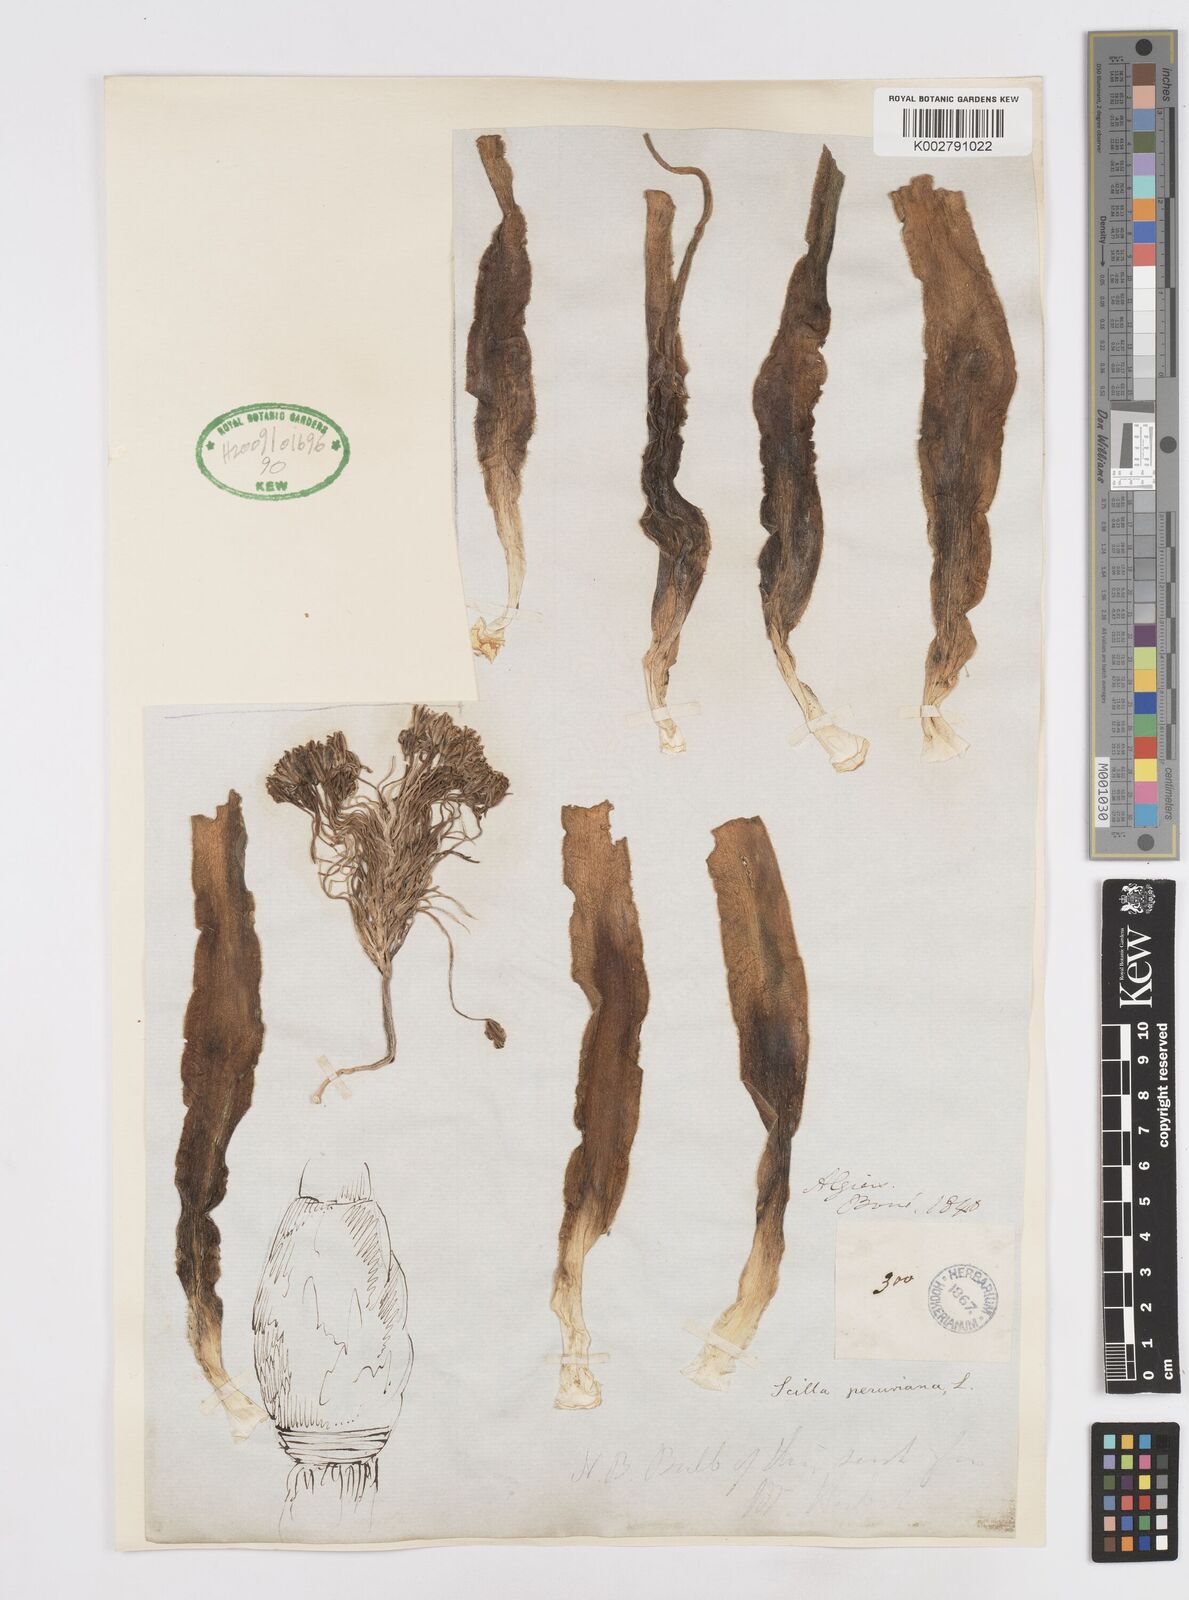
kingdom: Plantae
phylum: Tracheophyta
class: Liliopsida
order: Asparagales
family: Asparagaceae
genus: Scilla
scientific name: Scilla peruviana
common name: Portuguese squill
